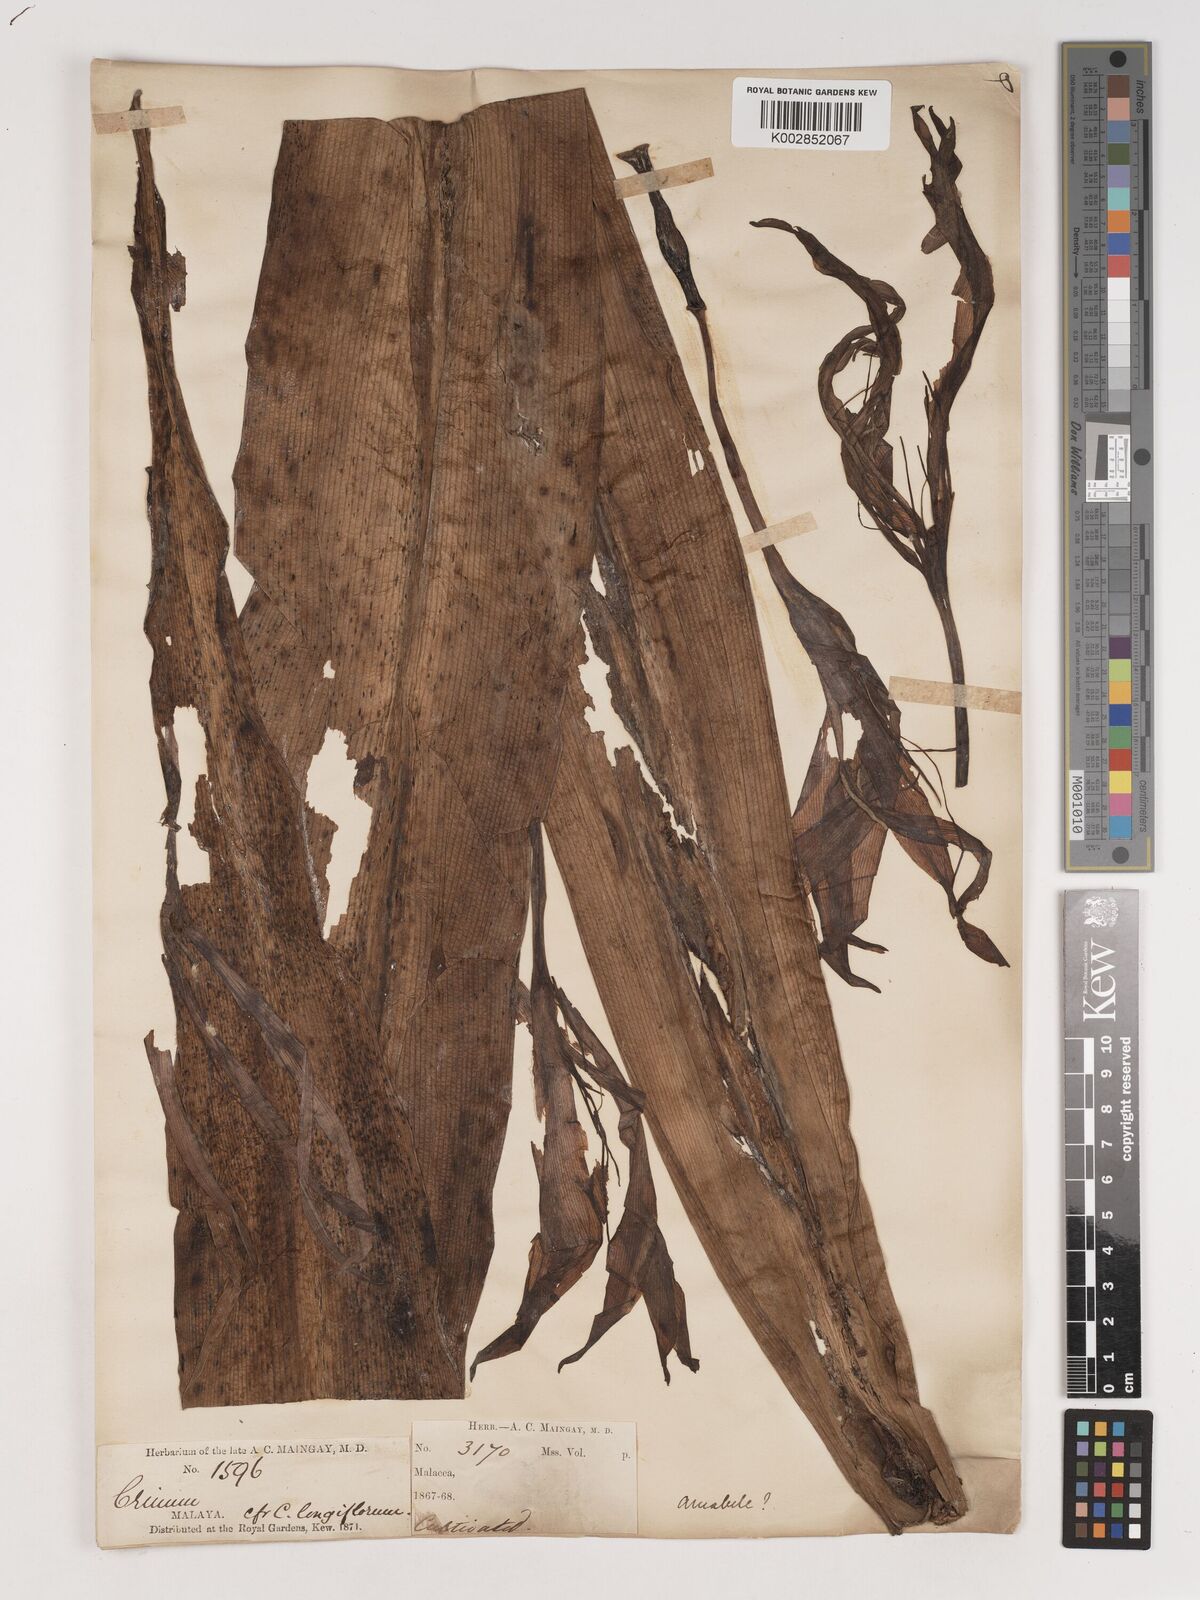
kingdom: Plantae
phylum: Tracheophyta
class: Liliopsida
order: Asparagales
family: Amaryllidaceae
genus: Crinum
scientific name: Crinum amabile
